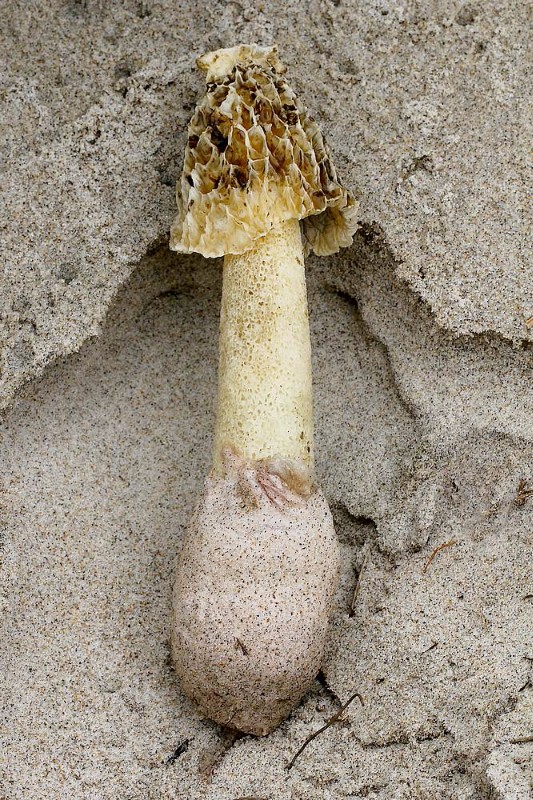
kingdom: Fungi
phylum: Basidiomycota
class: Agaricomycetes
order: Phallales
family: Phallaceae
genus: Phallus
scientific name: Phallus hadriani
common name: sand-stinksvamp
